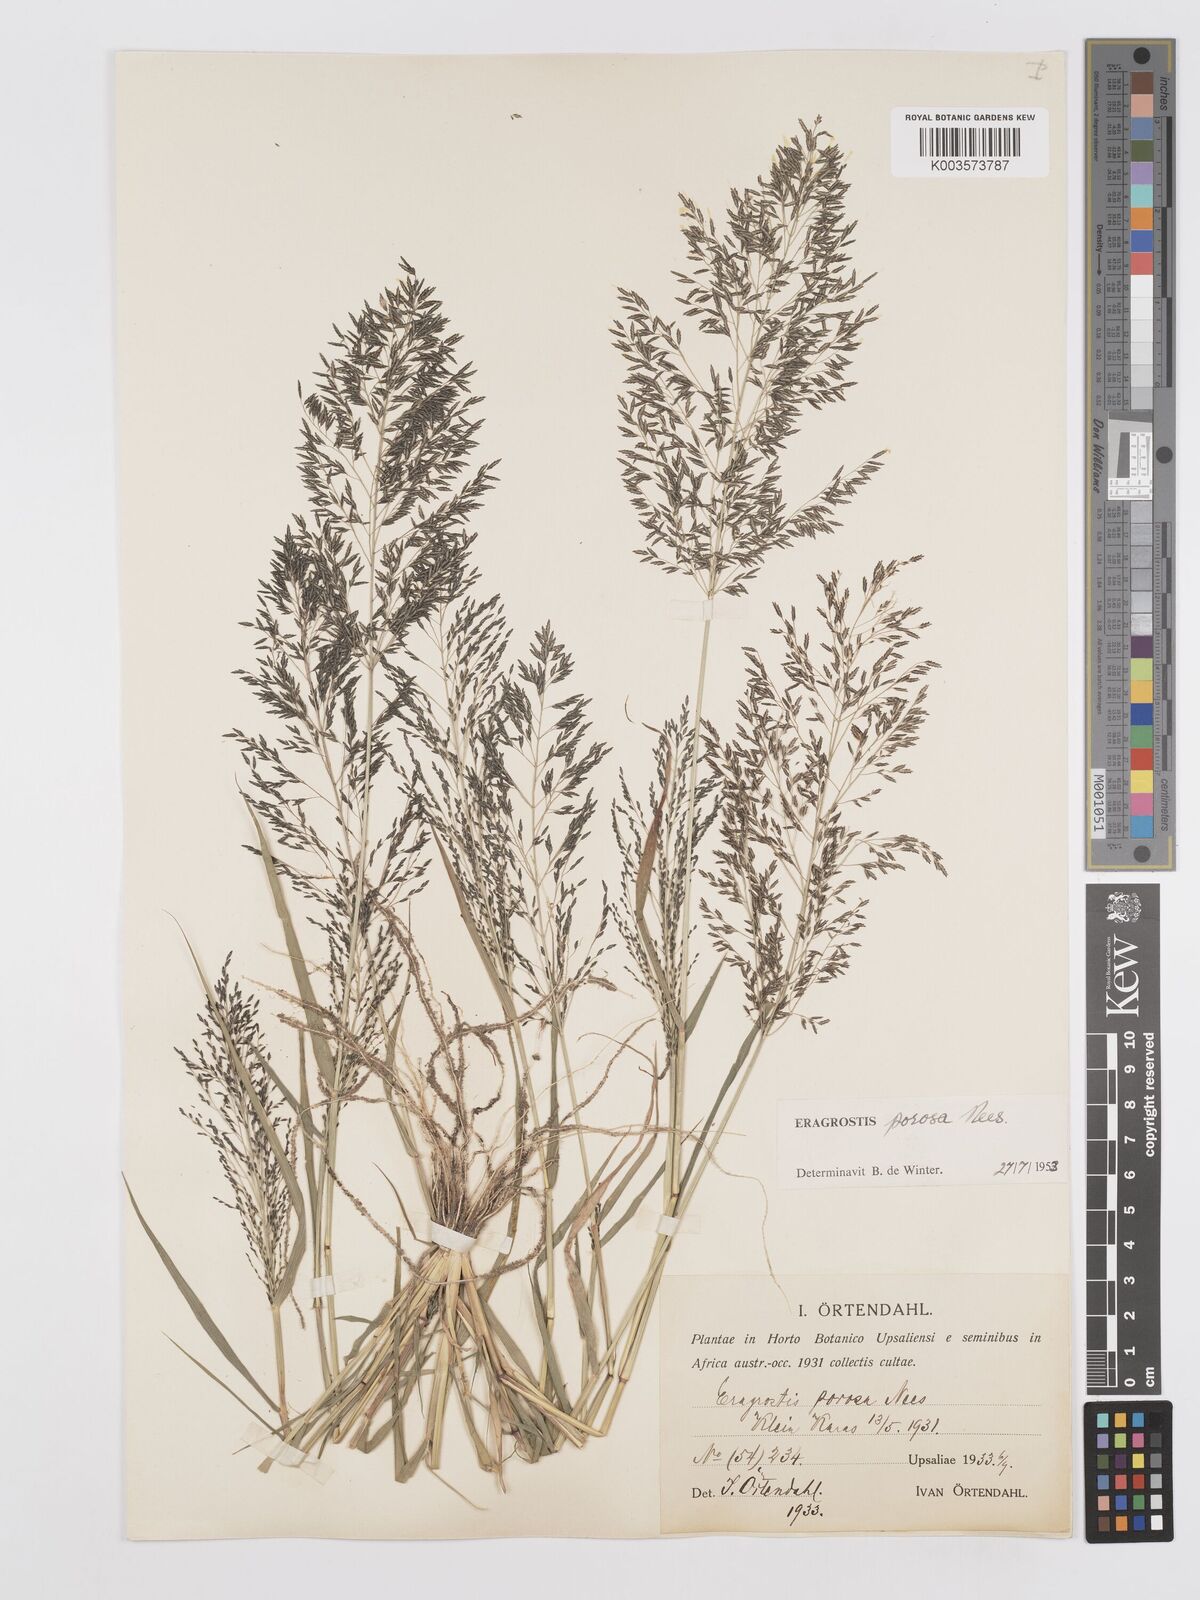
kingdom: Plantae
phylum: Tracheophyta
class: Liliopsida
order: Poales
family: Poaceae
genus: Eragrostis
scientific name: Eragrostis porosa
